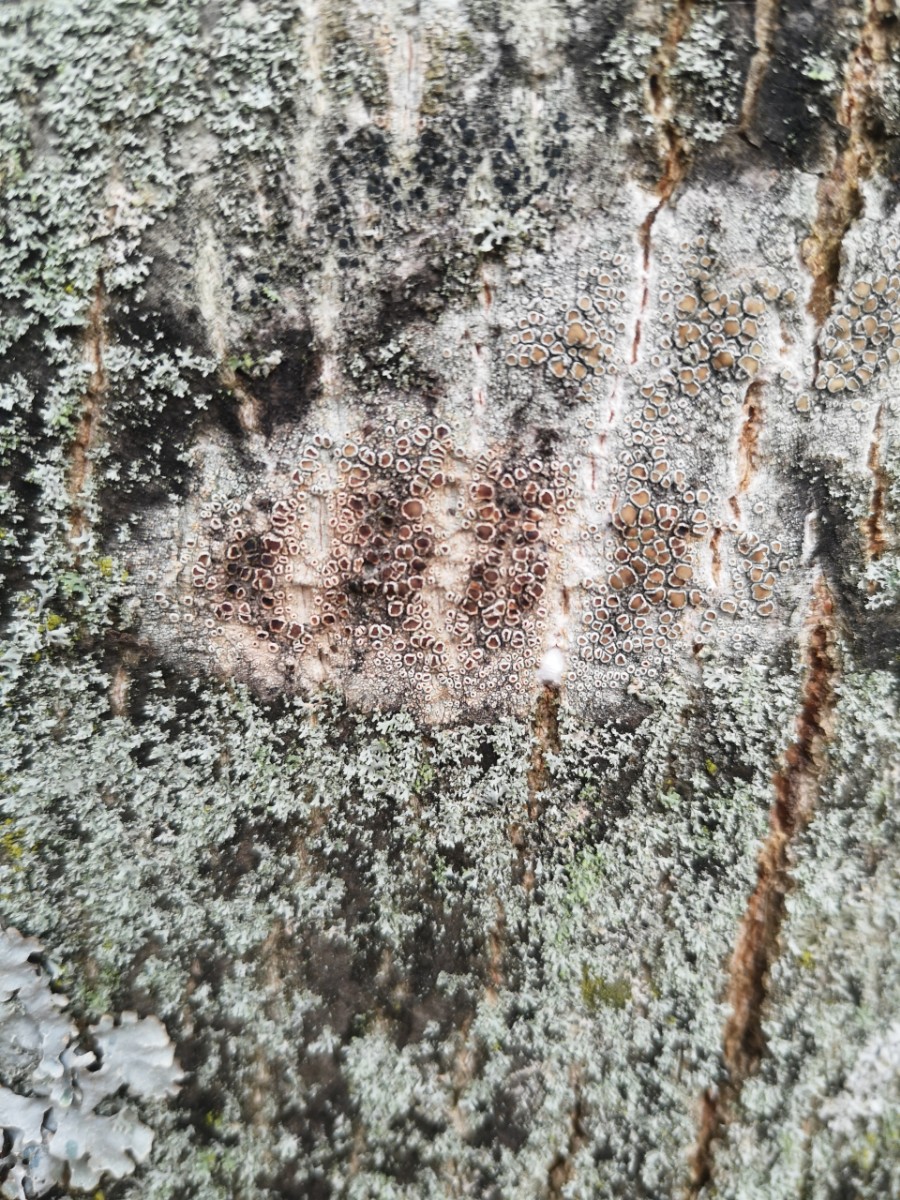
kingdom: Fungi
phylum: Ascomycota
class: Lecanoromycetes
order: Lecanorales
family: Lecanoraceae
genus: Lecanora
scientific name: Lecanora chlarotera
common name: brun kantskivelav
